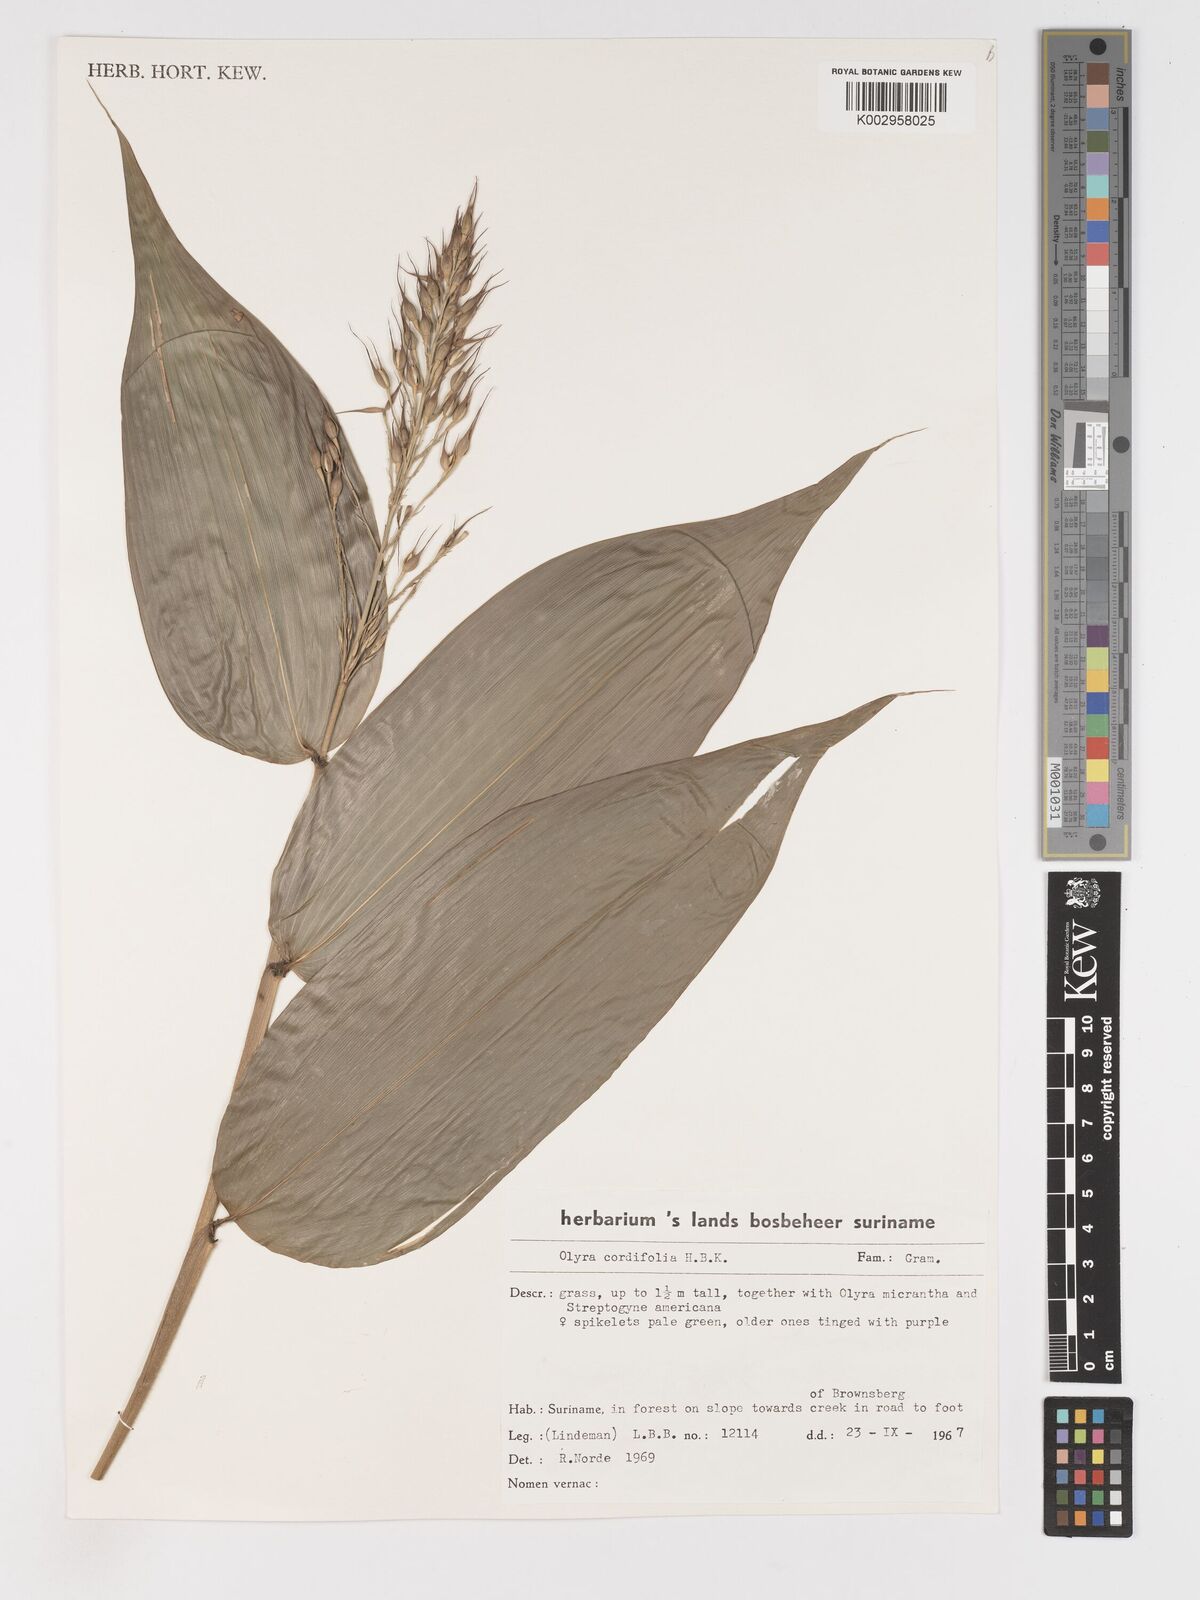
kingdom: Plantae
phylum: Tracheophyta
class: Liliopsida
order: Poales
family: Poaceae
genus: Olyra
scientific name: Olyra latifolia
